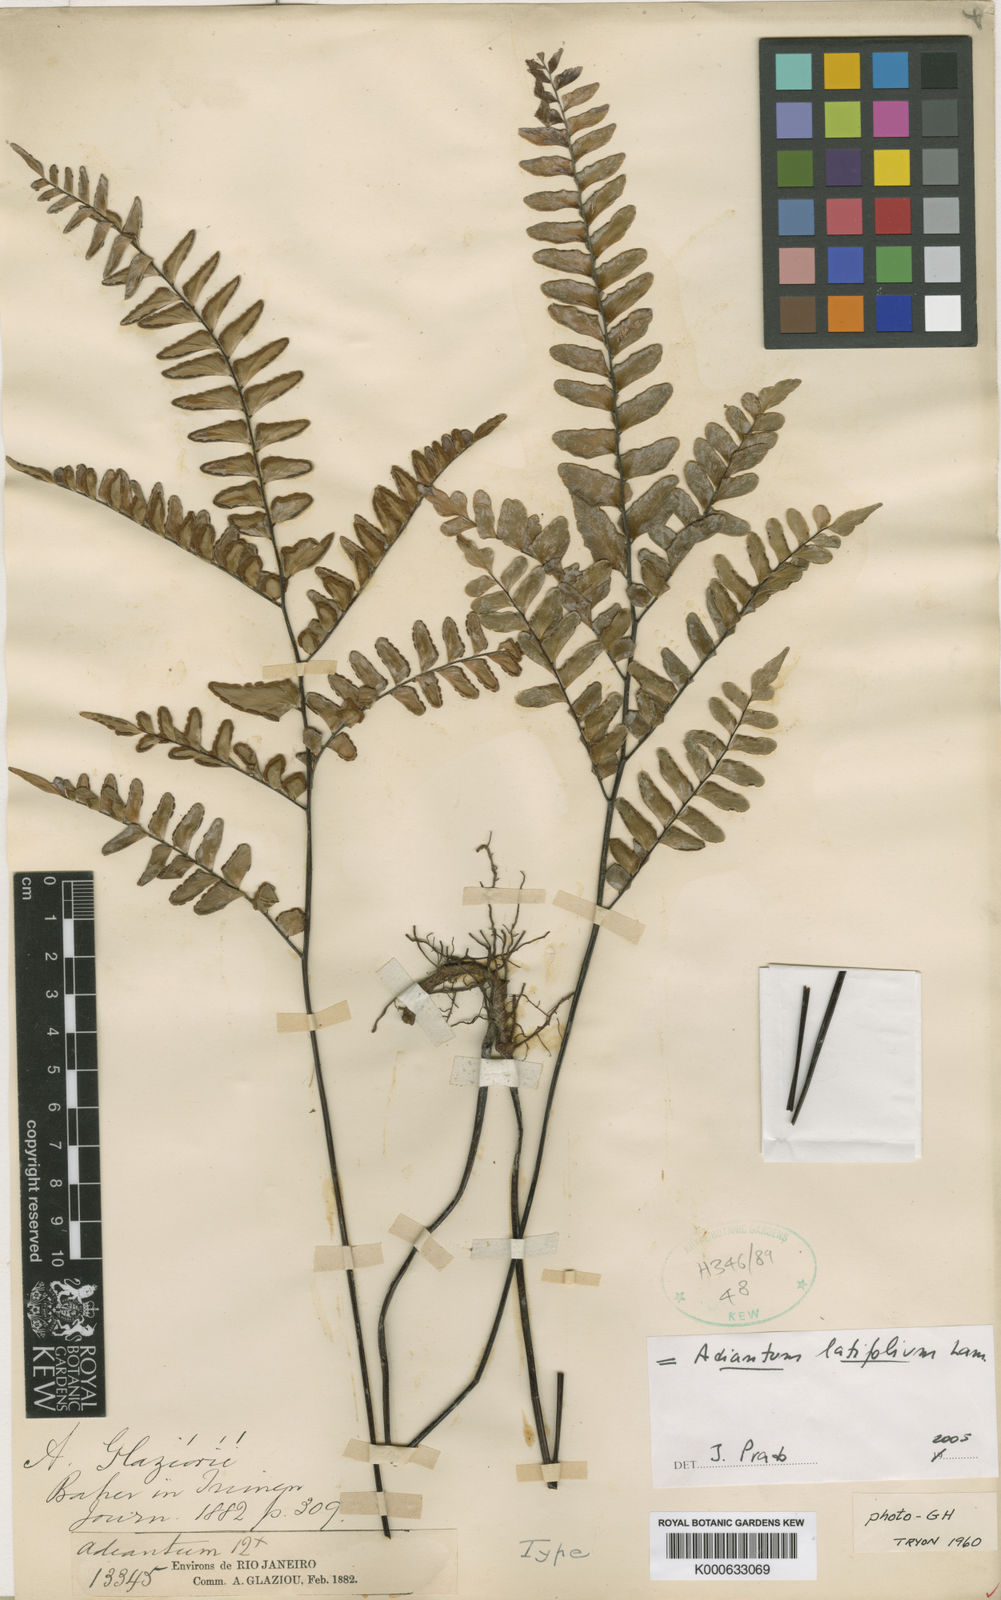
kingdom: Plantae
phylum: Tracheophyta
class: Polypodiopsida
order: Polypodiales
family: Pteridaceae
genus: Adiantum
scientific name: Adiantum latifolium
